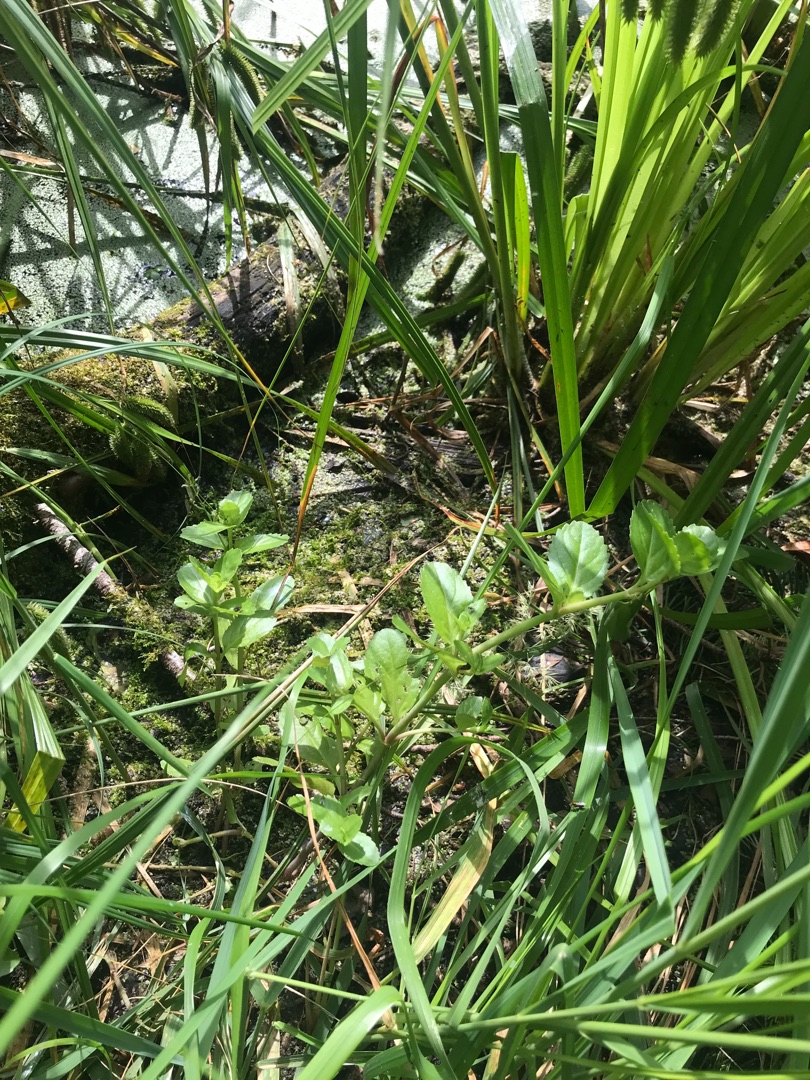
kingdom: Plantae
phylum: Tracheophyta
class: Magnoliopsida
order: Lamiales
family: Plantaginaceae
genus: Veronica
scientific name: Veronica beccabunga
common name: Tykbladet ærenpris
